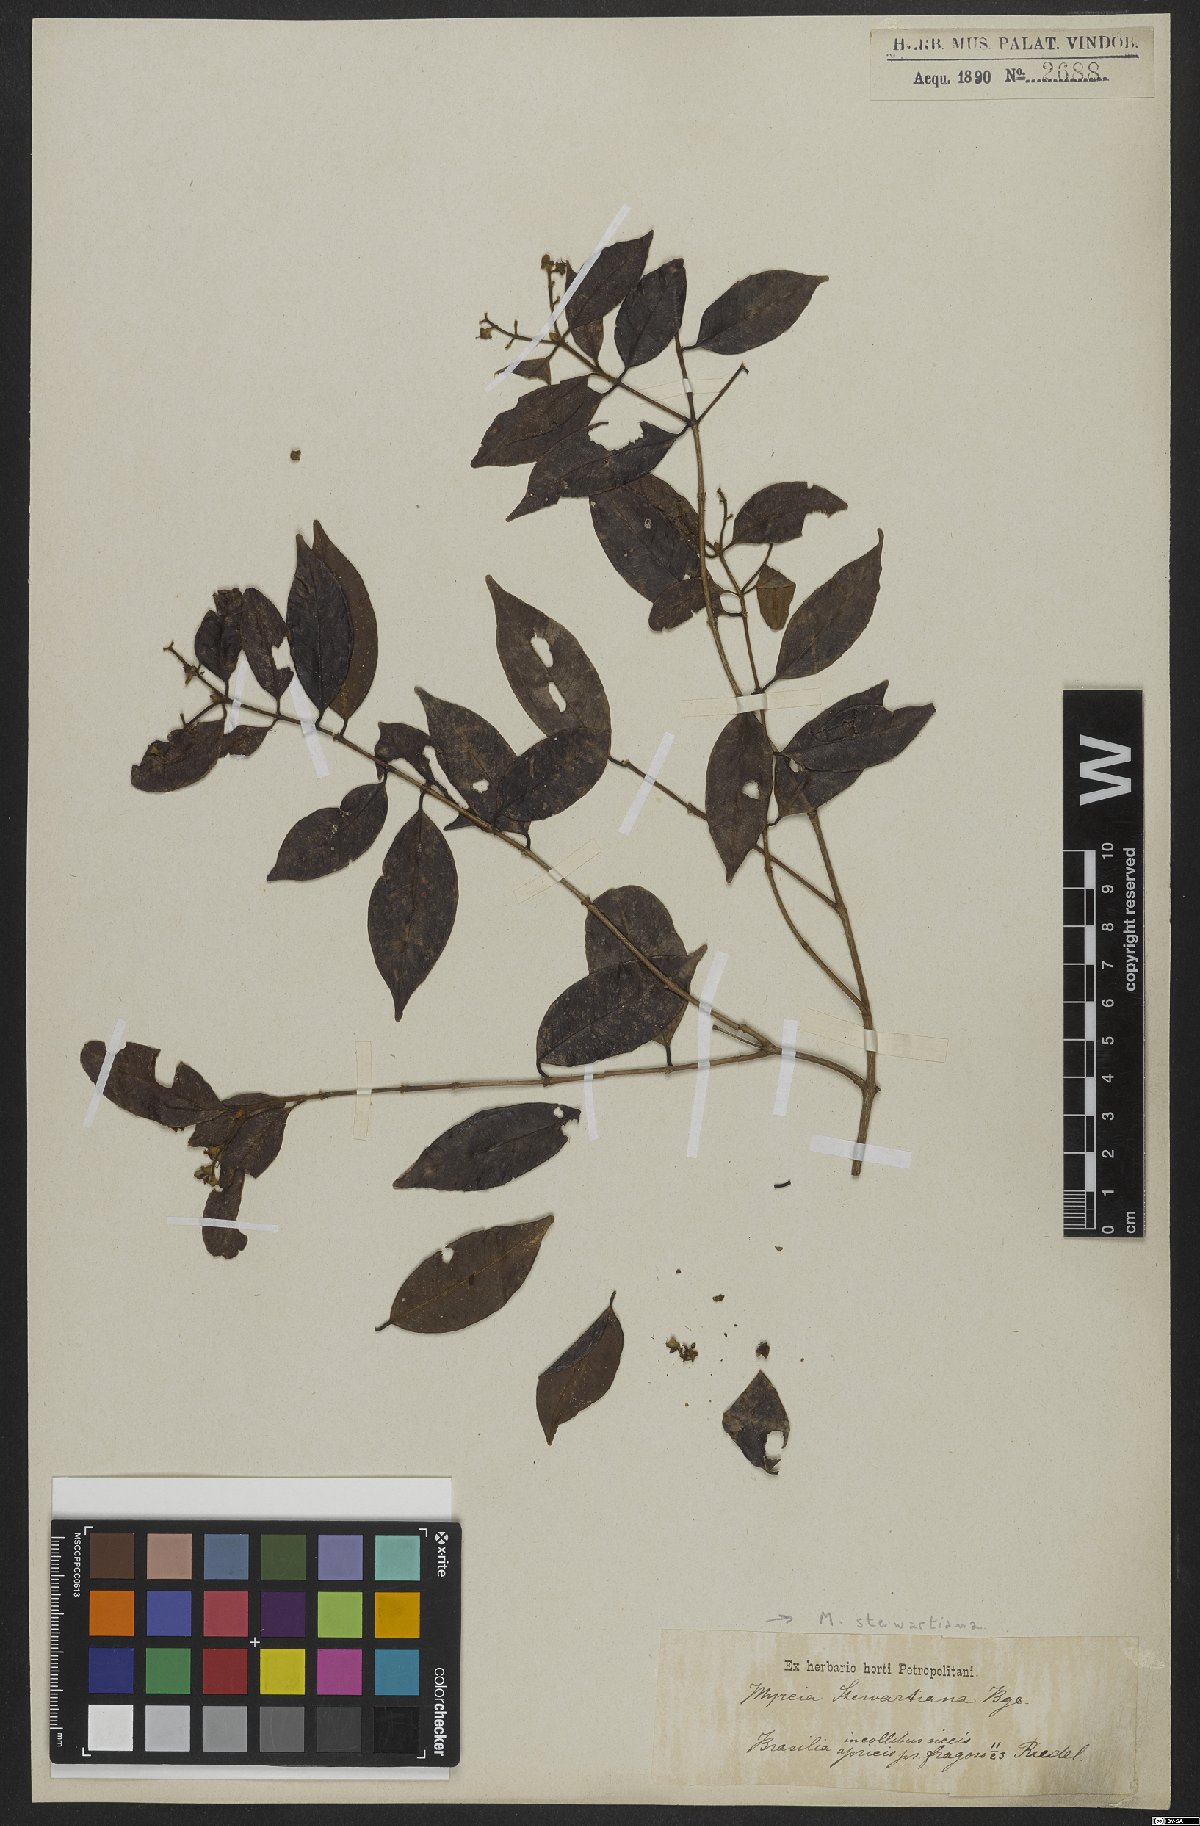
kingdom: Plantae
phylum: Tracheophyta
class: Magnoliopsida
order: Myrtales
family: Myrtaceae
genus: Myrcia
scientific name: Myrcia stewartiana
